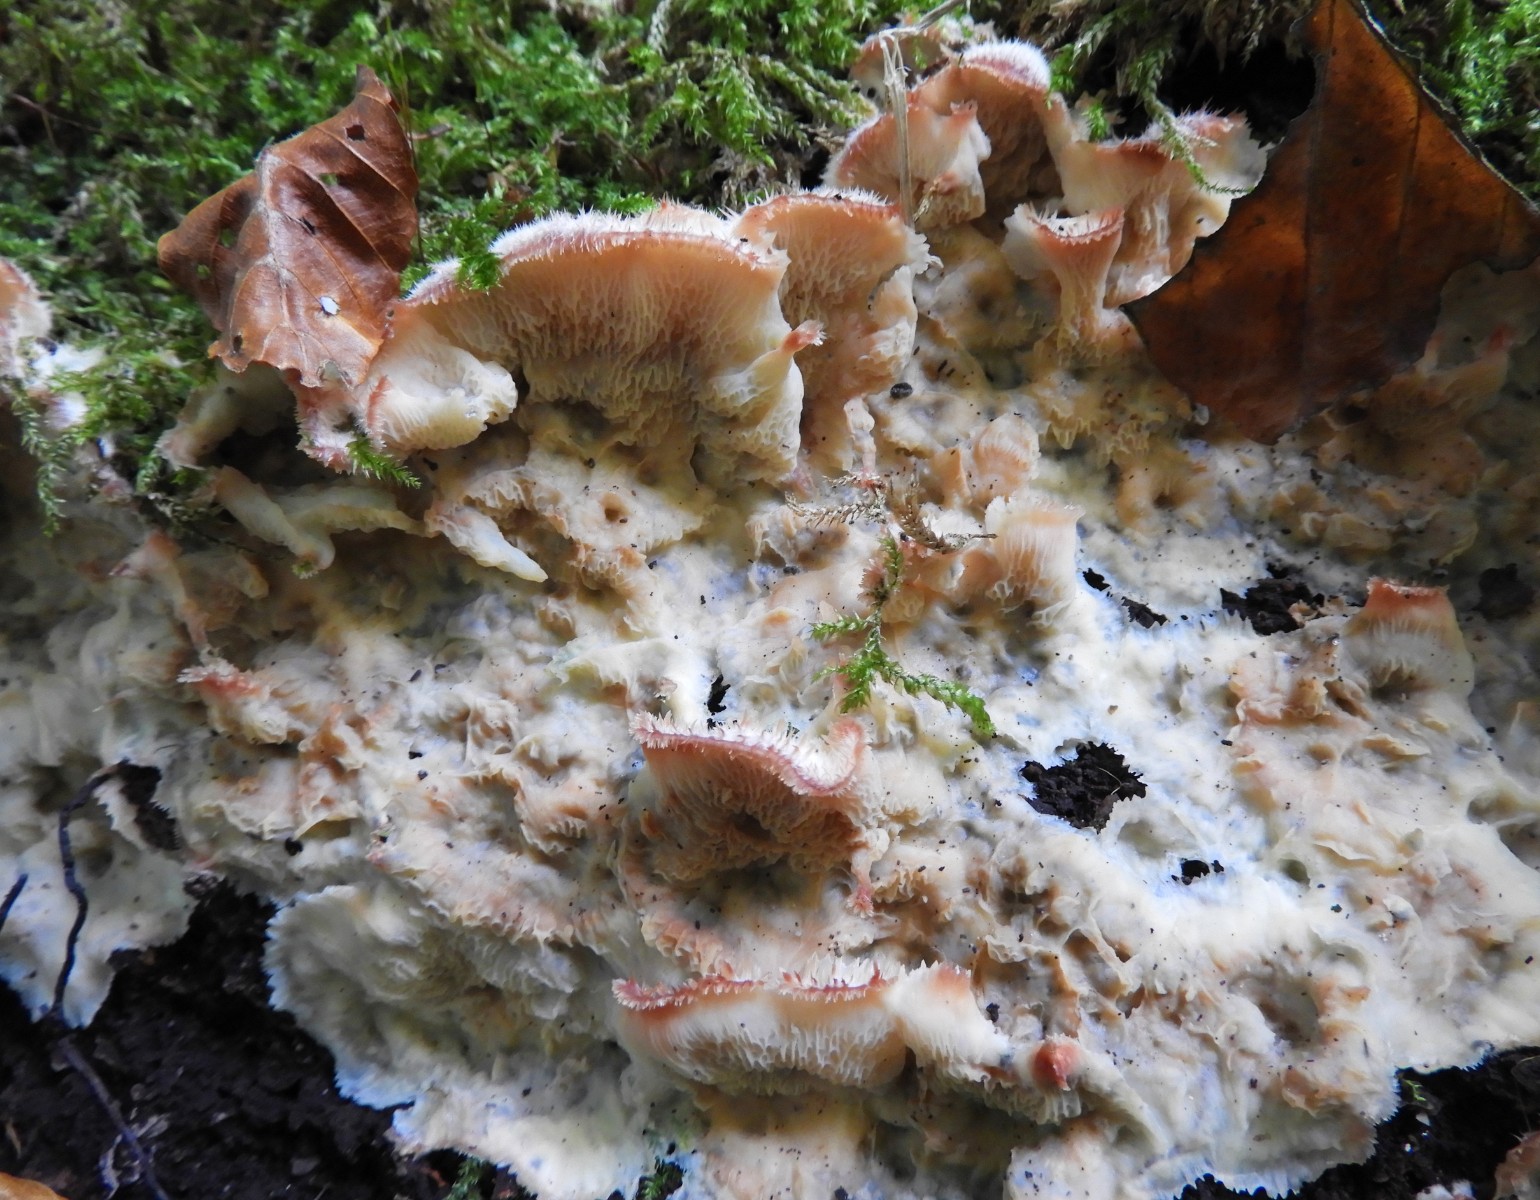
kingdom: Fungi
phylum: Basidiomycota
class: Agaricomycetes
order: Polyporales
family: Meruliaceae
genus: Phlebia
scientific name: Phlebia tremellosa
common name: bævrende åresvamp
